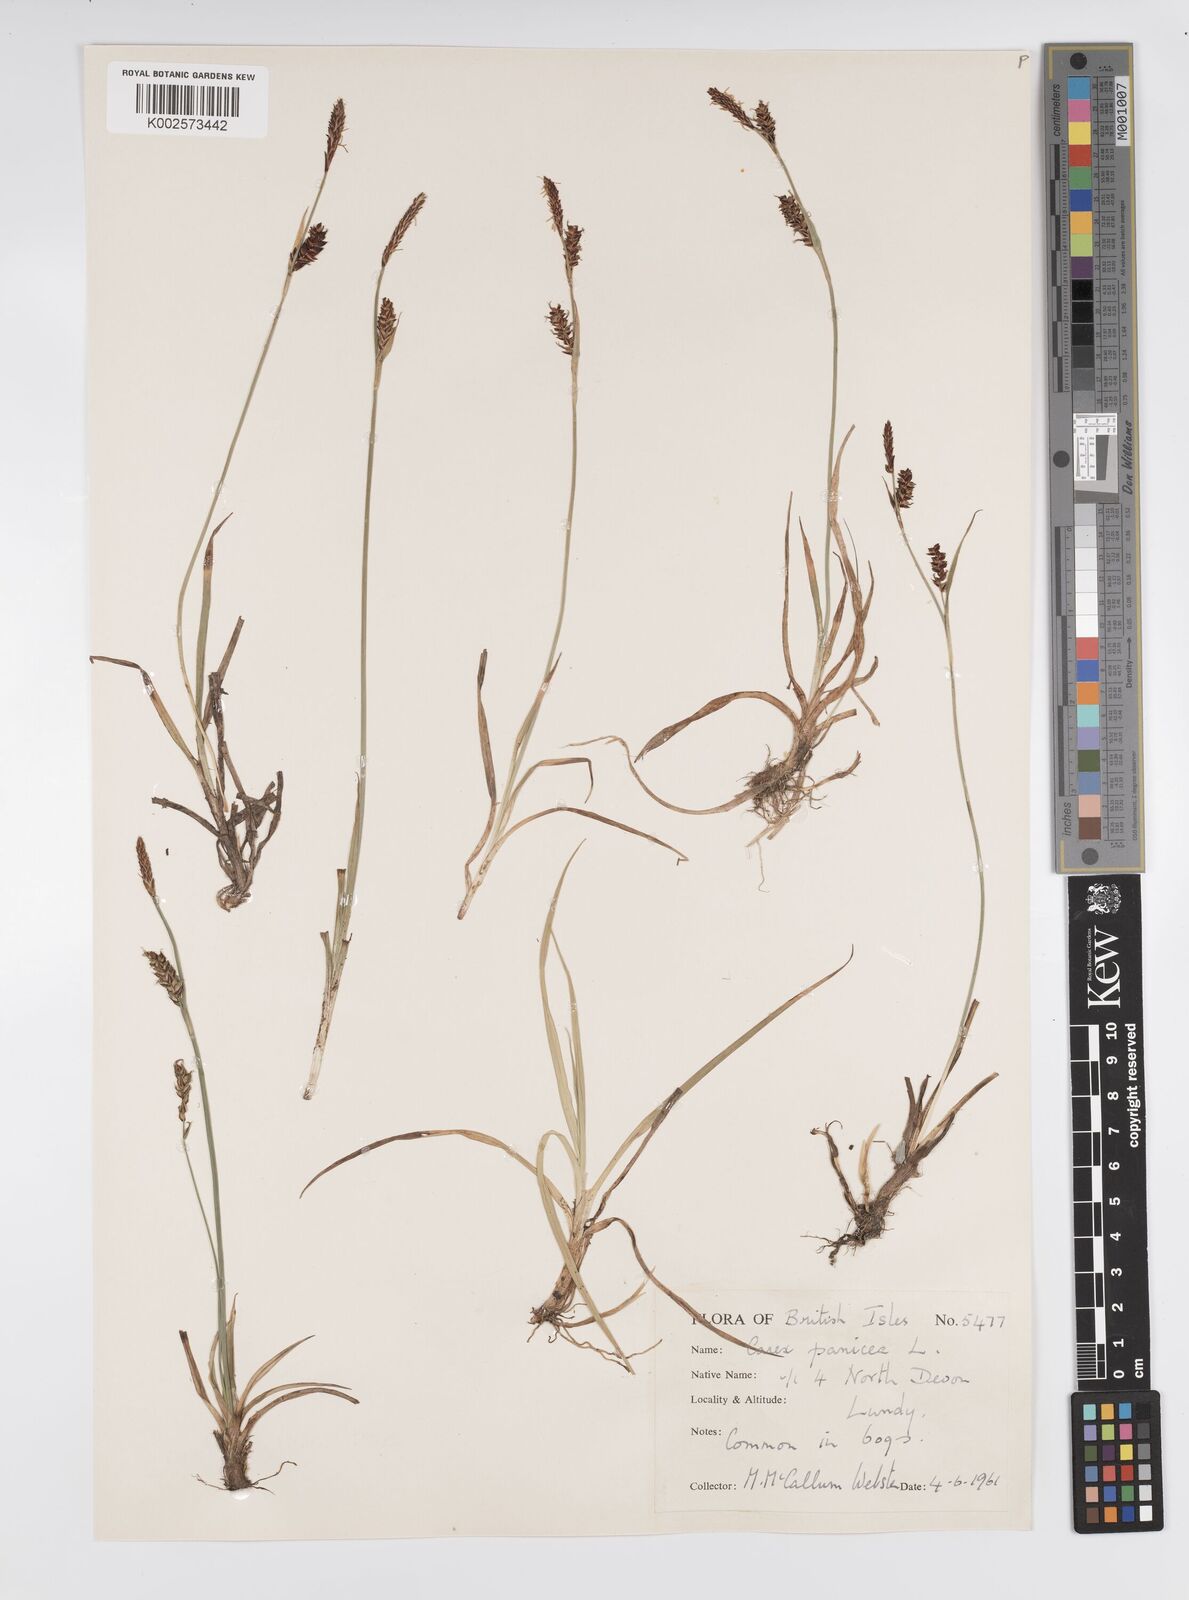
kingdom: Plantae
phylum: Tracheophyta
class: Liliopsida
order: Poales
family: Cyperaceae
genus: Carex
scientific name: Carex panicea
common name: Carnation sedge
